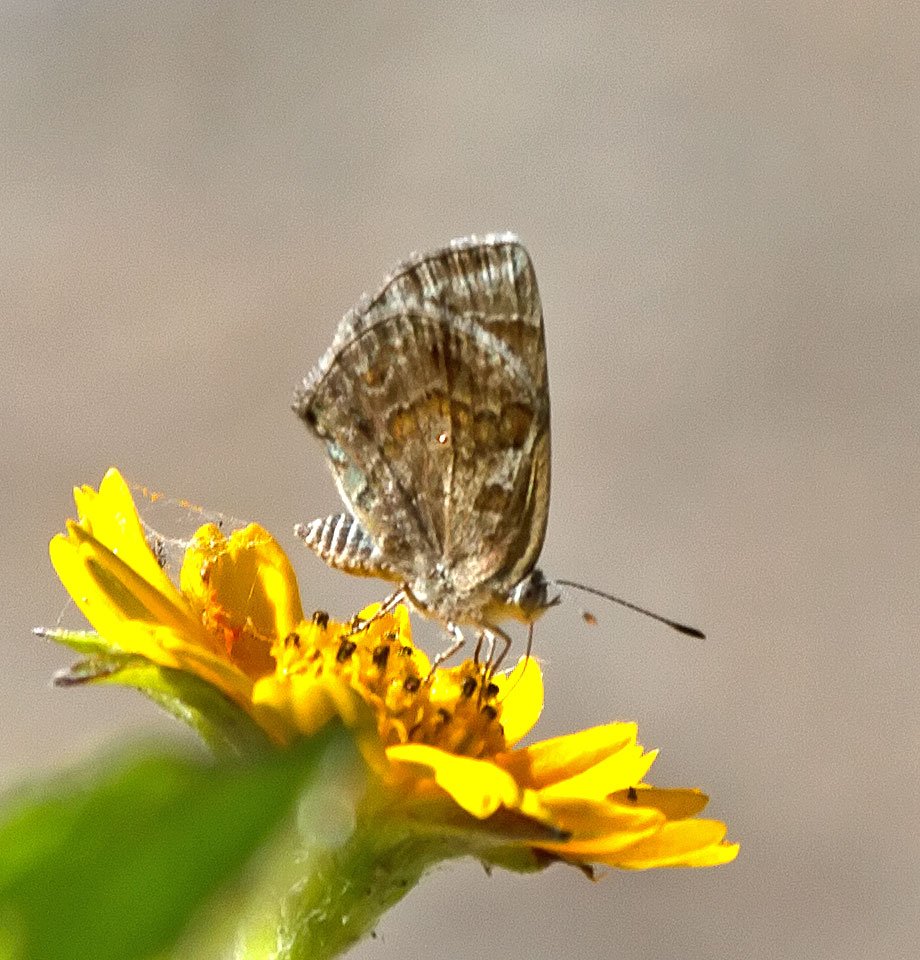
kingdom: Animalia
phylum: Arthropoda
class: Insecta
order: Lepidoptera
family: Lycaenidae
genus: Strymon
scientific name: Strymon bazochii
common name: Lantana Scrub-Hairstreak
